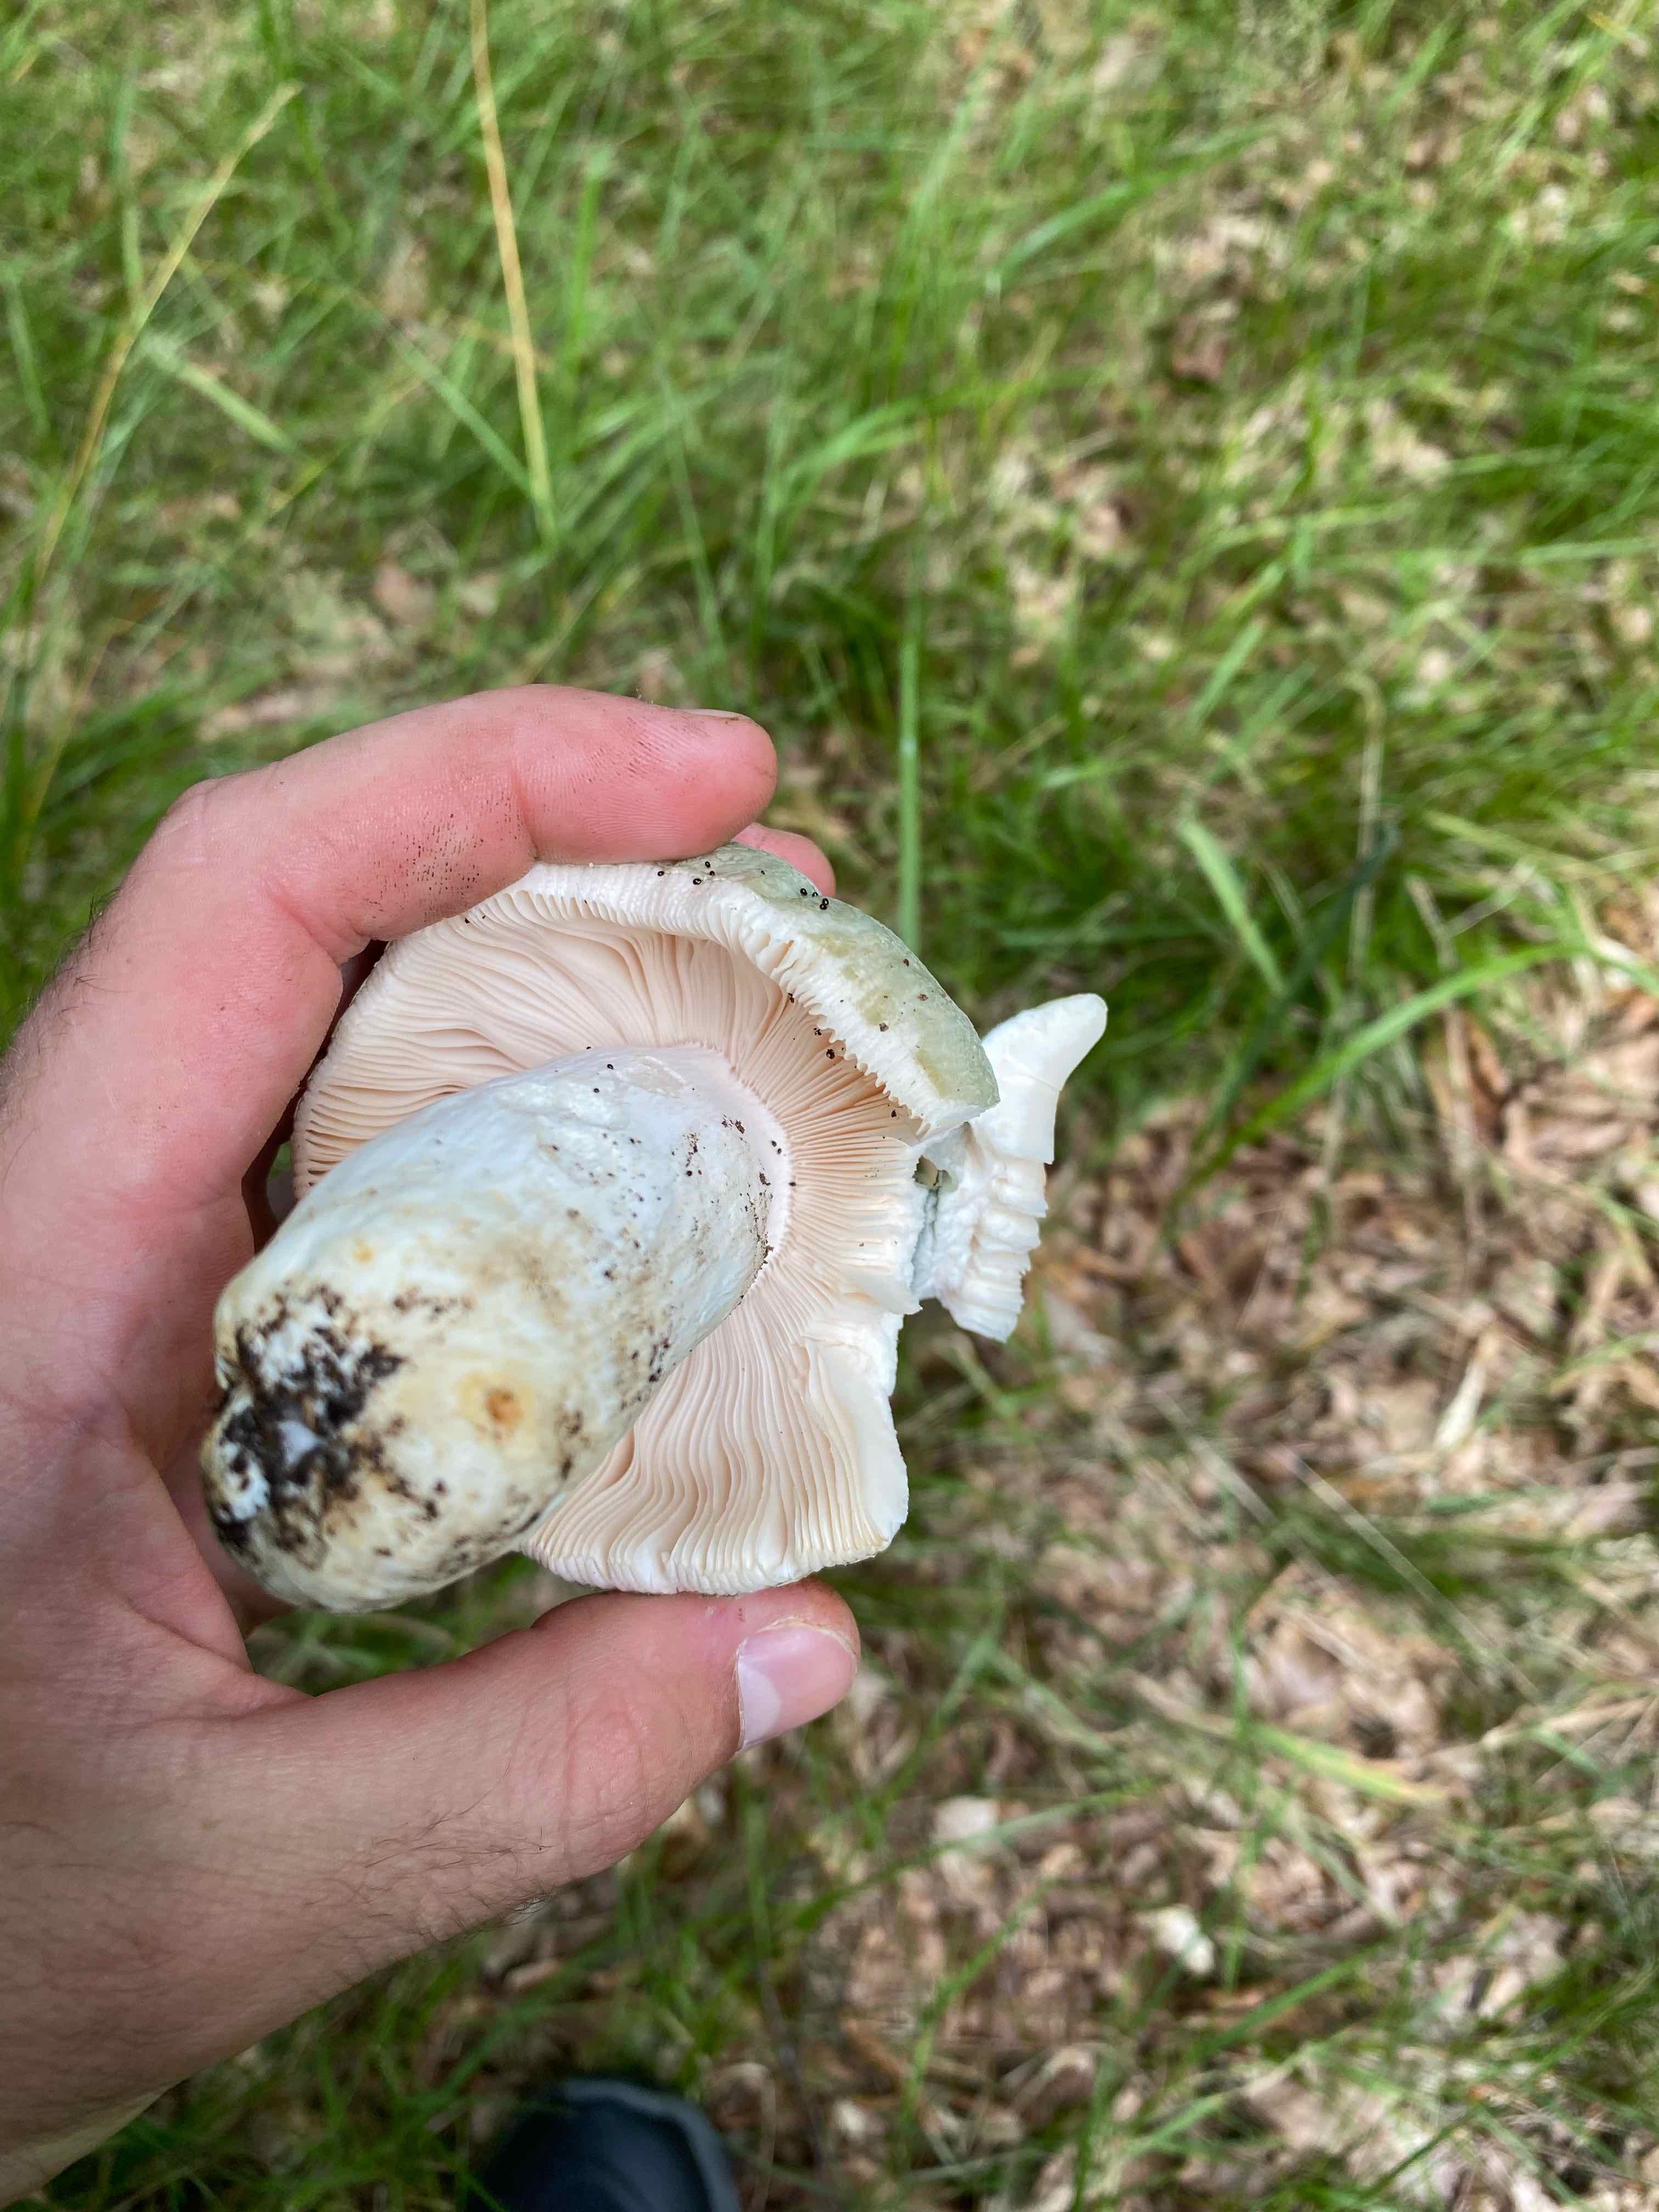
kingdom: Fungi
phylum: Basidiomycota
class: Agaricomycetes
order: Russulales
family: Russulaceae
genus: Russula
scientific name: Russula virescens
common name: spanskgrøn skørhat
